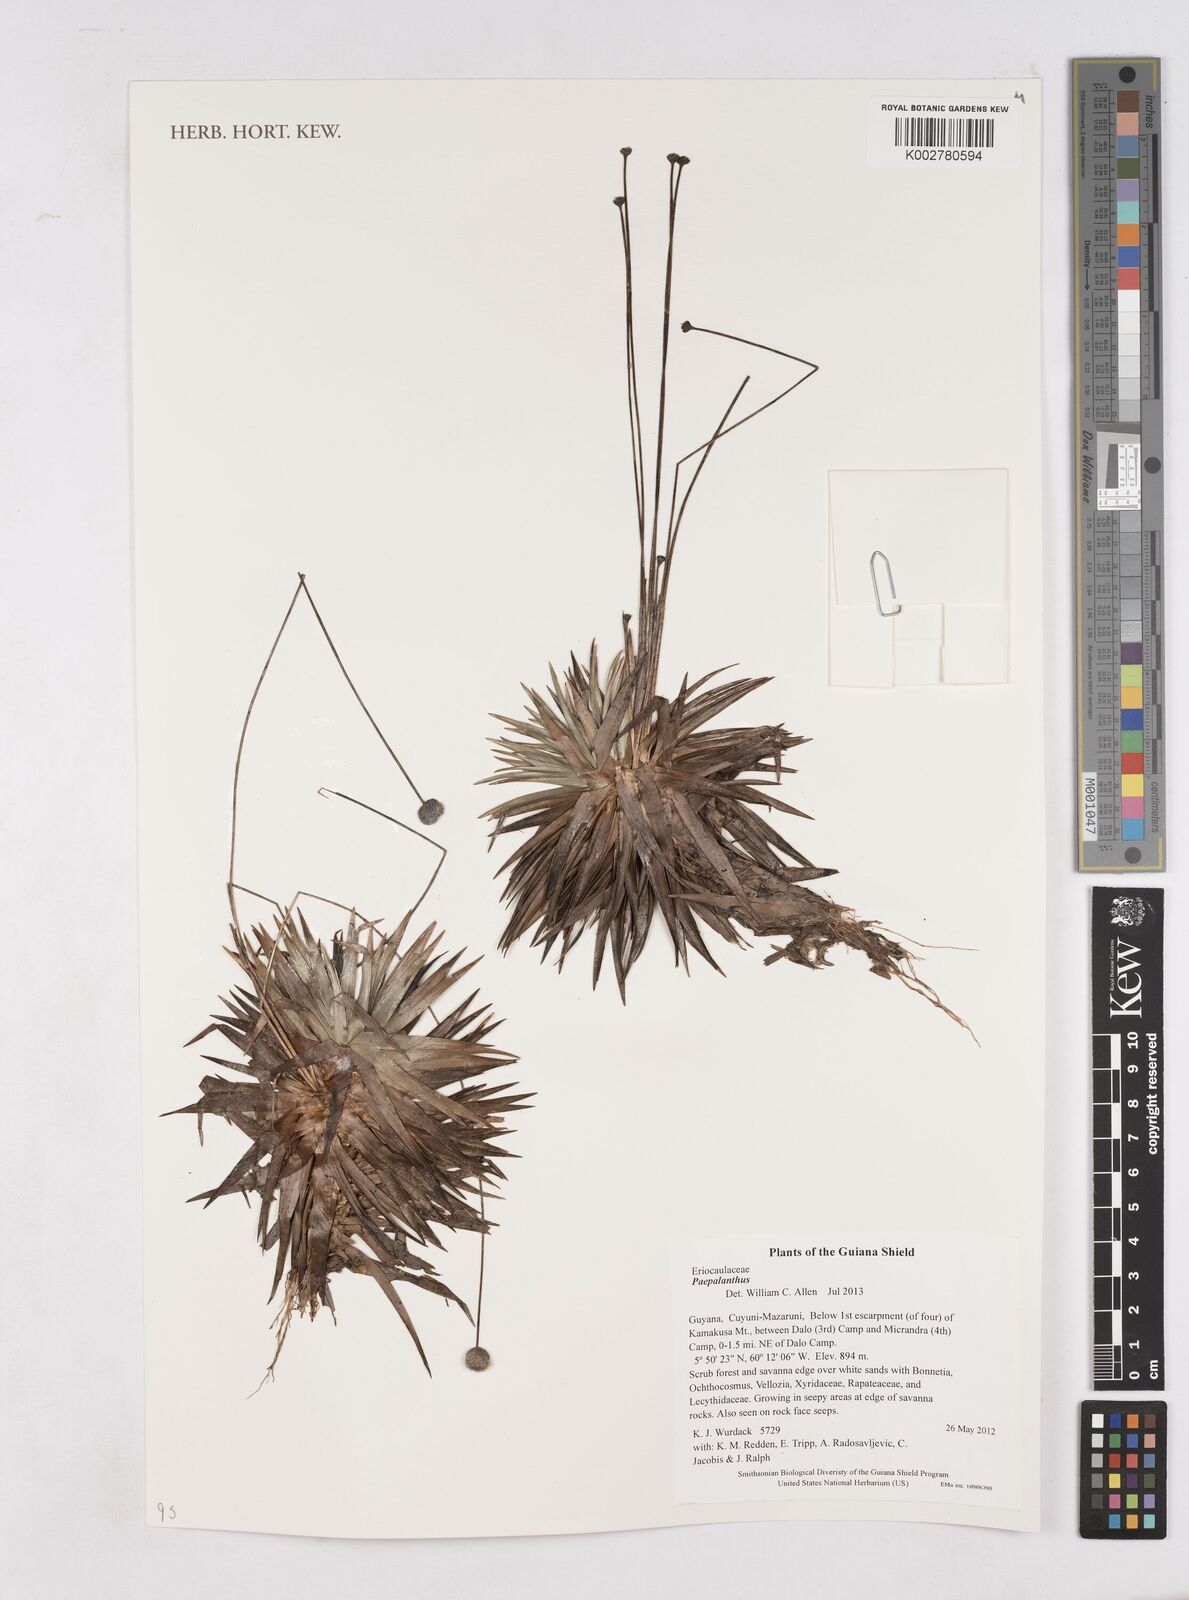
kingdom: Plantae
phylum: Tracheophyta
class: Liliopsida
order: Poales
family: Eriocaulaceae
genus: Paepalanthus
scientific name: Paepalanthus
